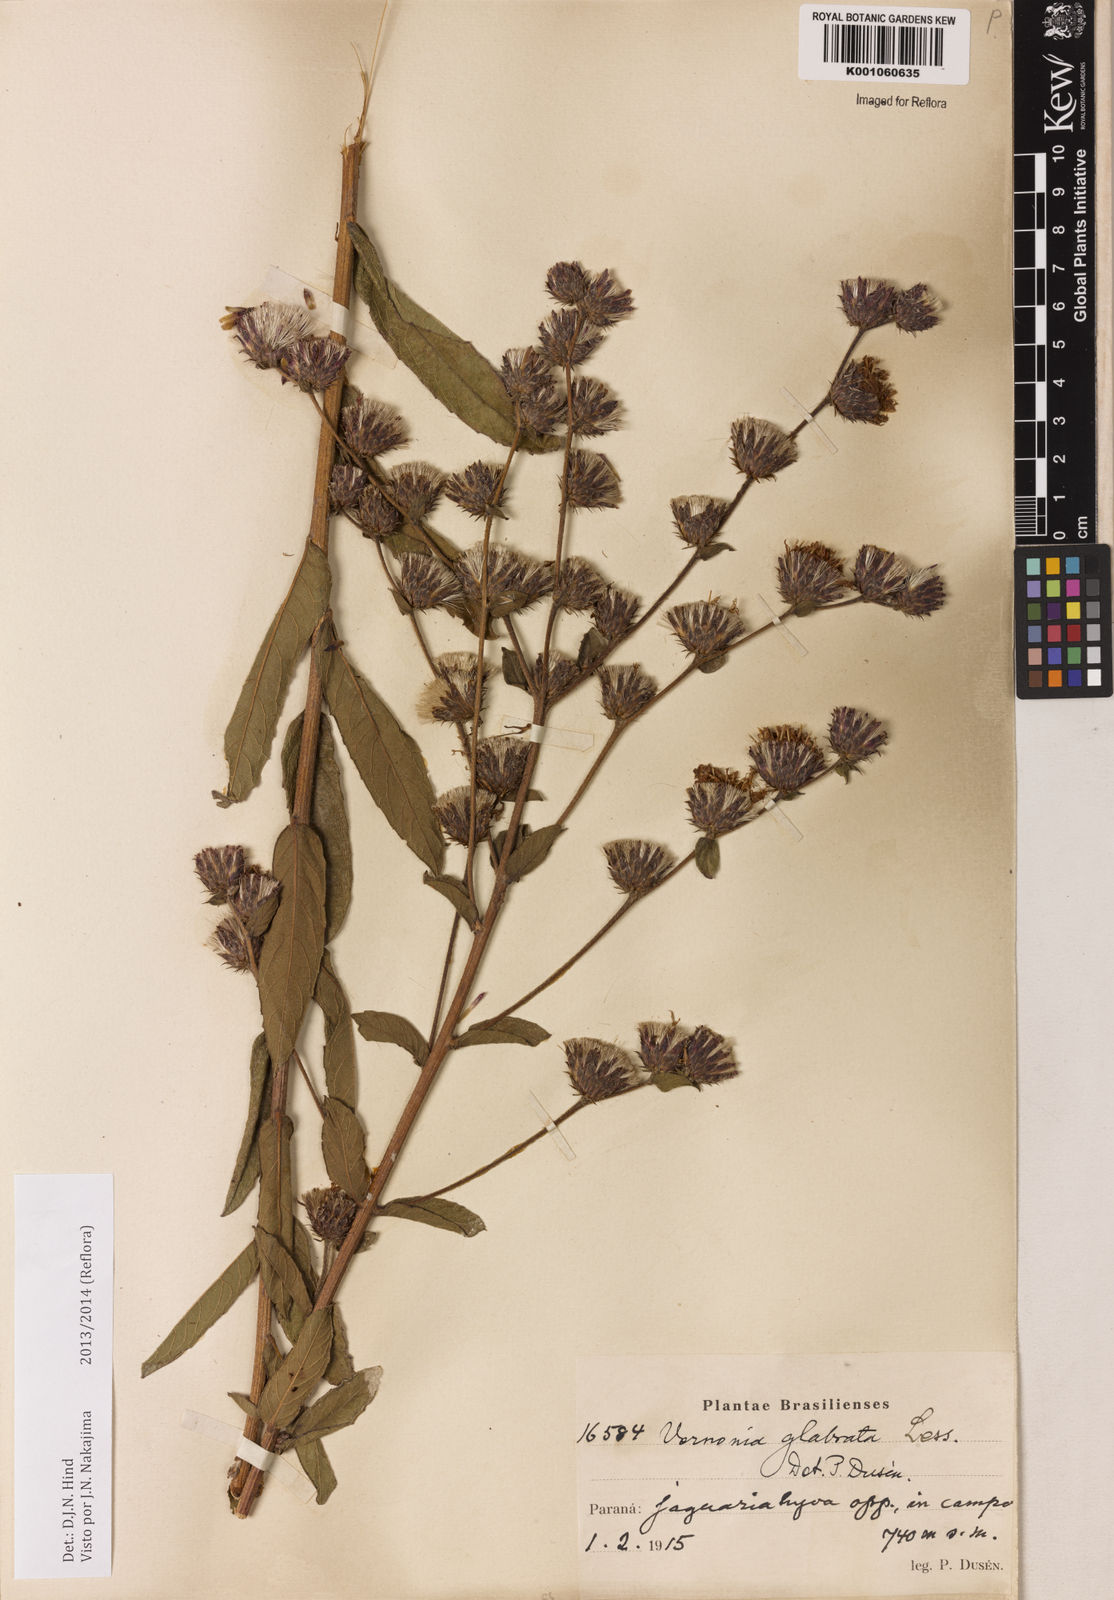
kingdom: Plantae
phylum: Tracheophyta
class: Magnoliopsida
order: Asterales
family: Asteraceae
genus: Lessingianthus
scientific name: Lessingianthus glabratus
